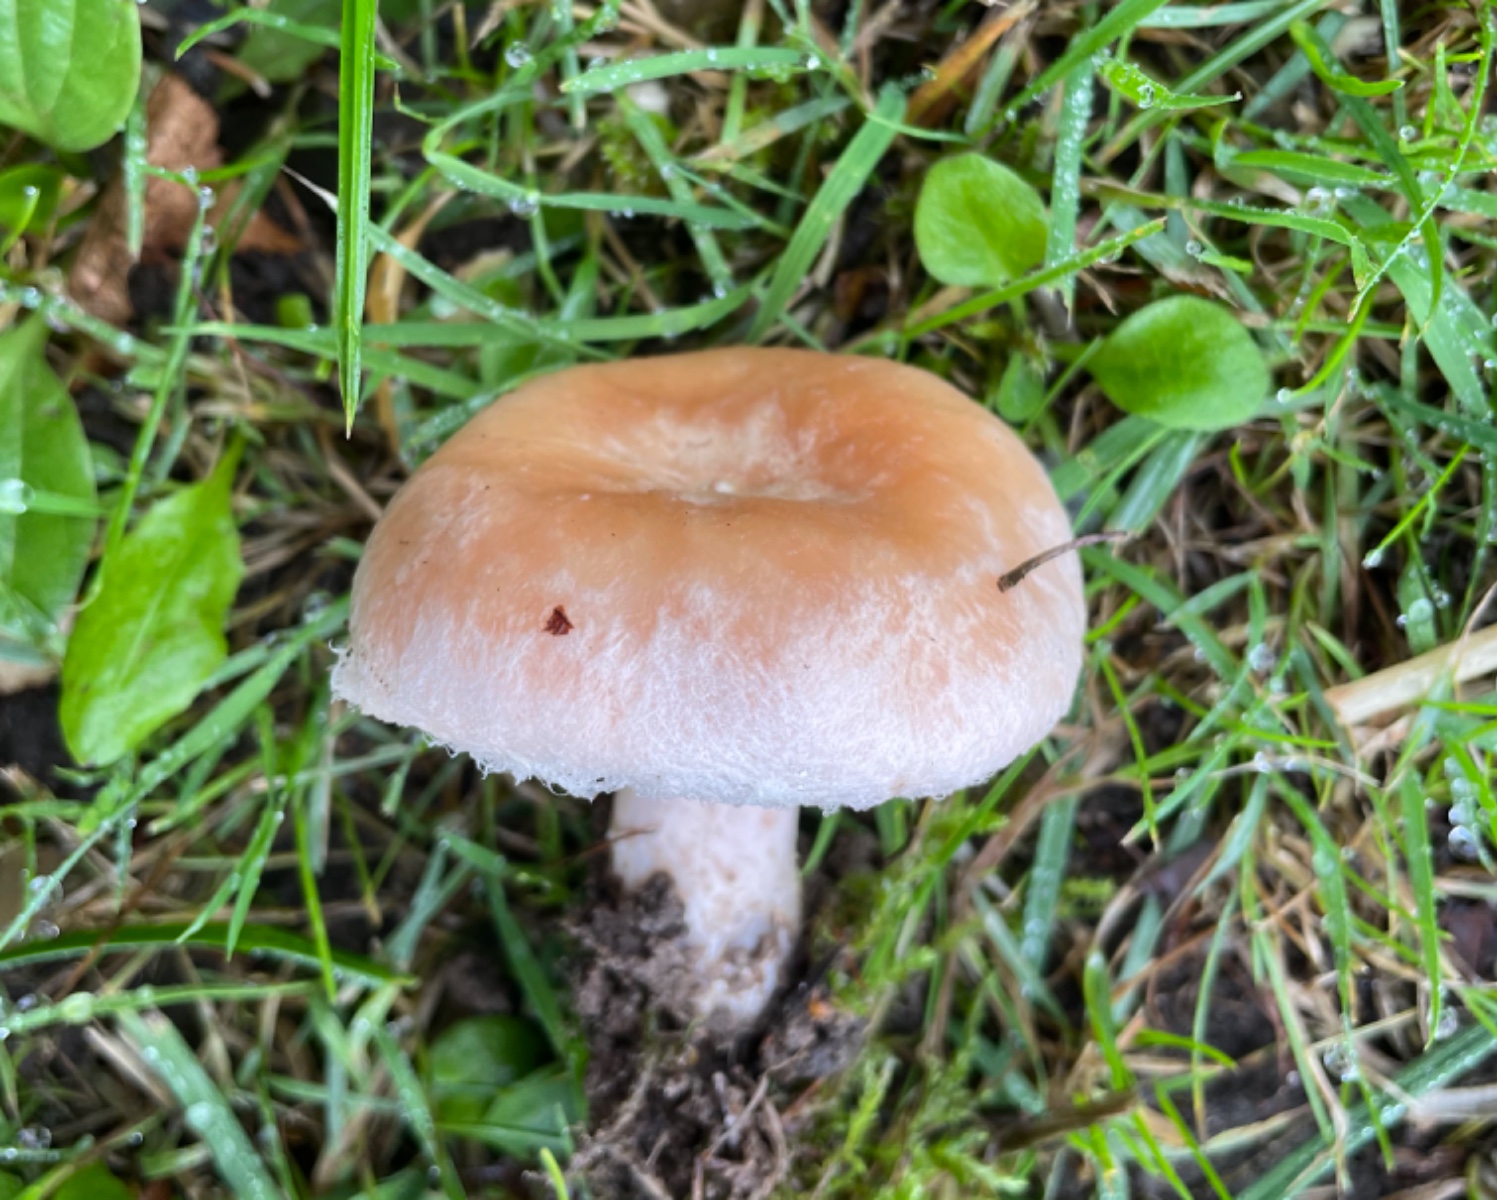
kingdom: Fungi
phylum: Basidiomycota
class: Agaricomycetes
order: Russulales
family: Russulaceae
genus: Lactarius
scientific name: Lactarius torminosus
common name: skægget mælkehat
